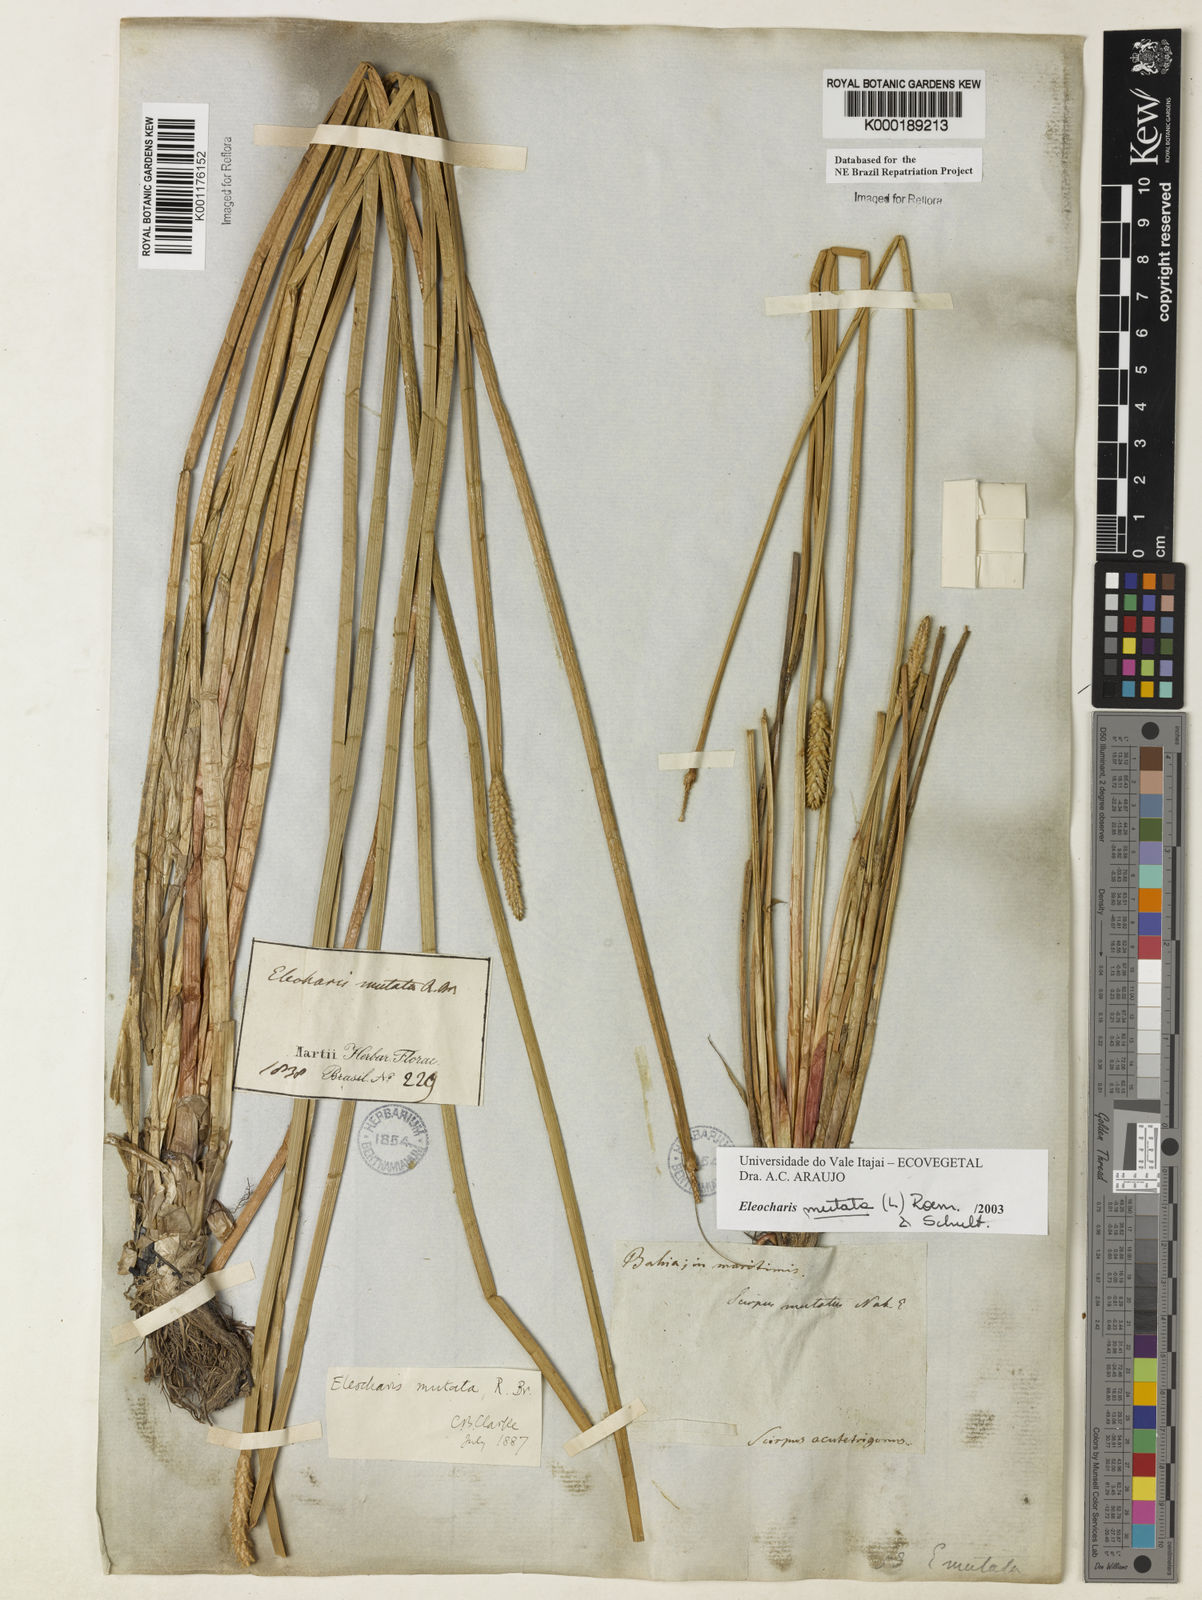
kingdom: Plantae
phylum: Tracheophyta
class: Liliopsida
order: Poales
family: Cyperaceae
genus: Eleocharis
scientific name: Eleocharis mutata
